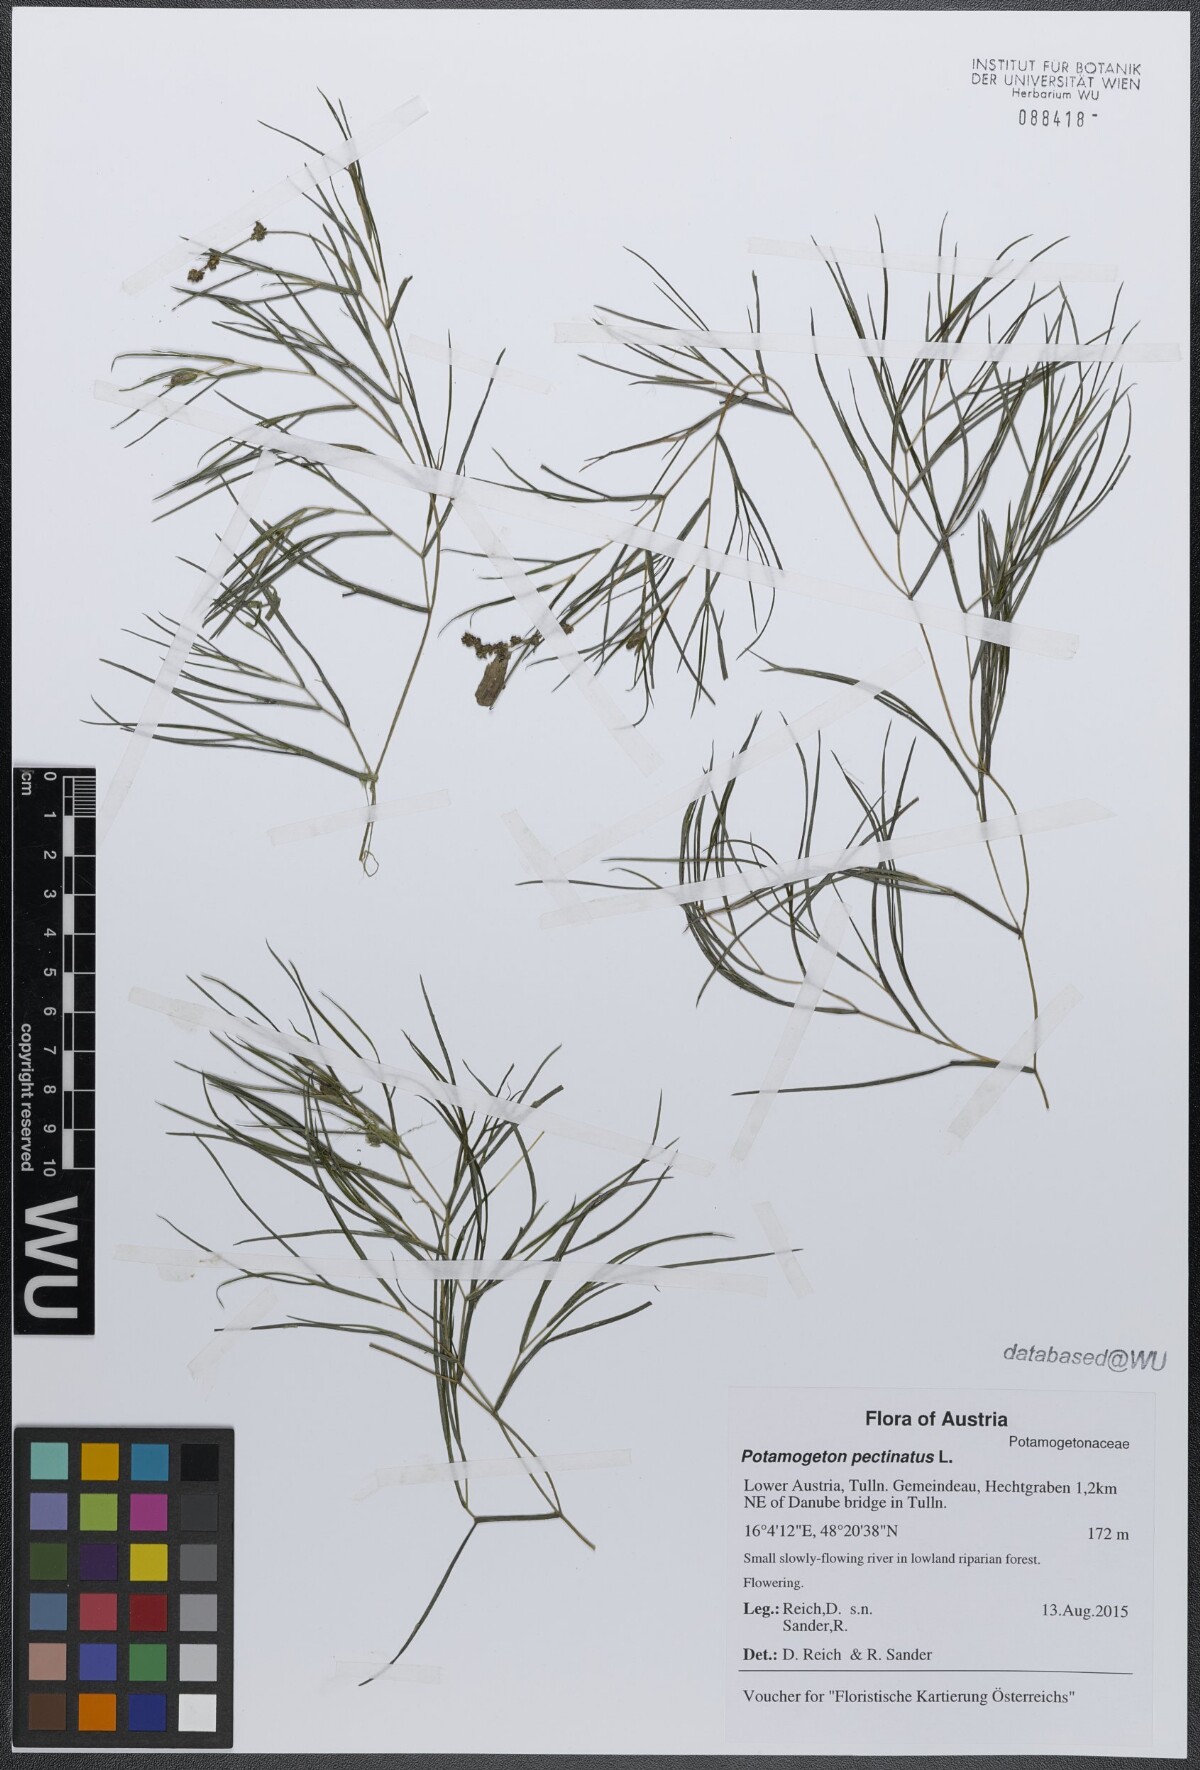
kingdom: Plantae
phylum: Tracheophyta
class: Liliopsida
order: Alismatales
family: Potamogetonaceae
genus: Stuckenia
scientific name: Stuckenia pectinata
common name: Sago pondweed
